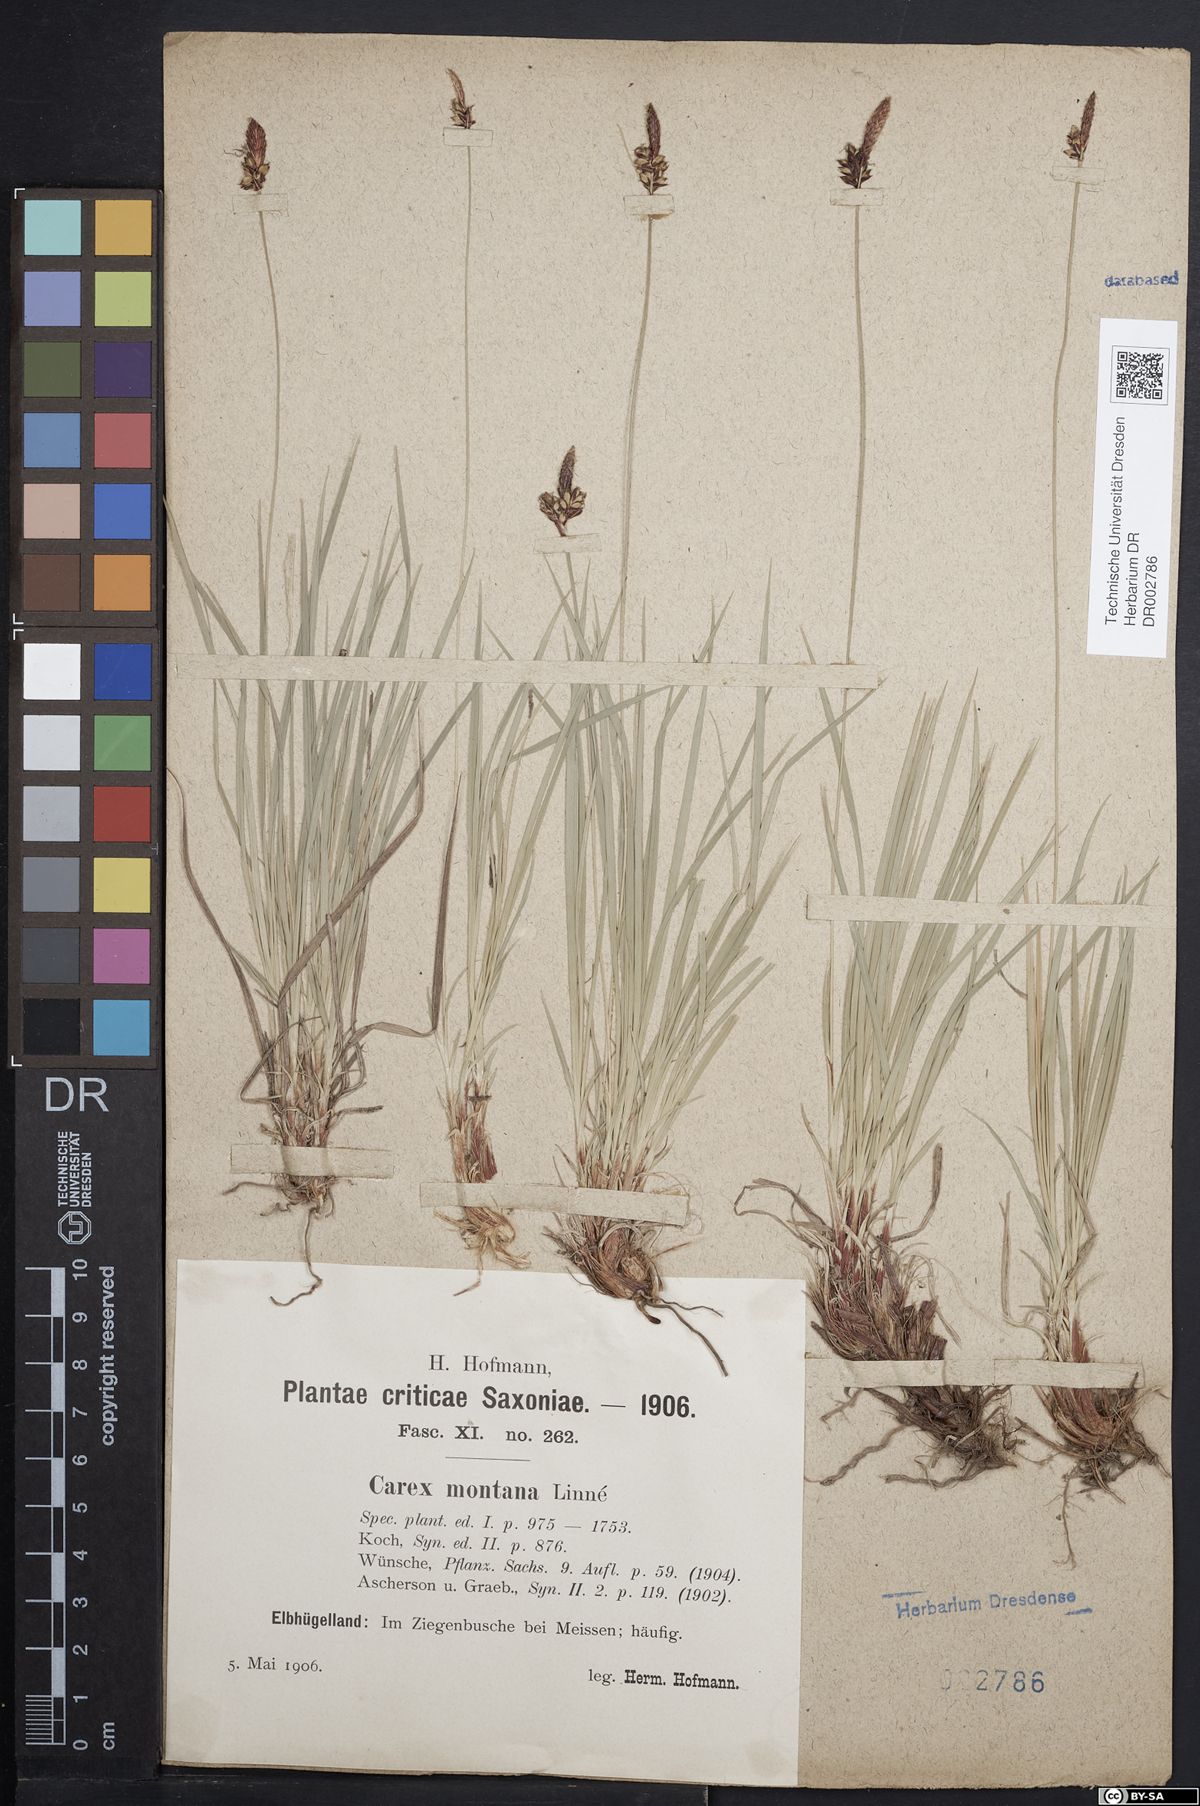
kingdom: Plantae
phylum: Tracheophyta
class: Liliopsida
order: Poales
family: Cyperaceae
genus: Carex
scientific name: Carex montana
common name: Soft-leaved sedge
